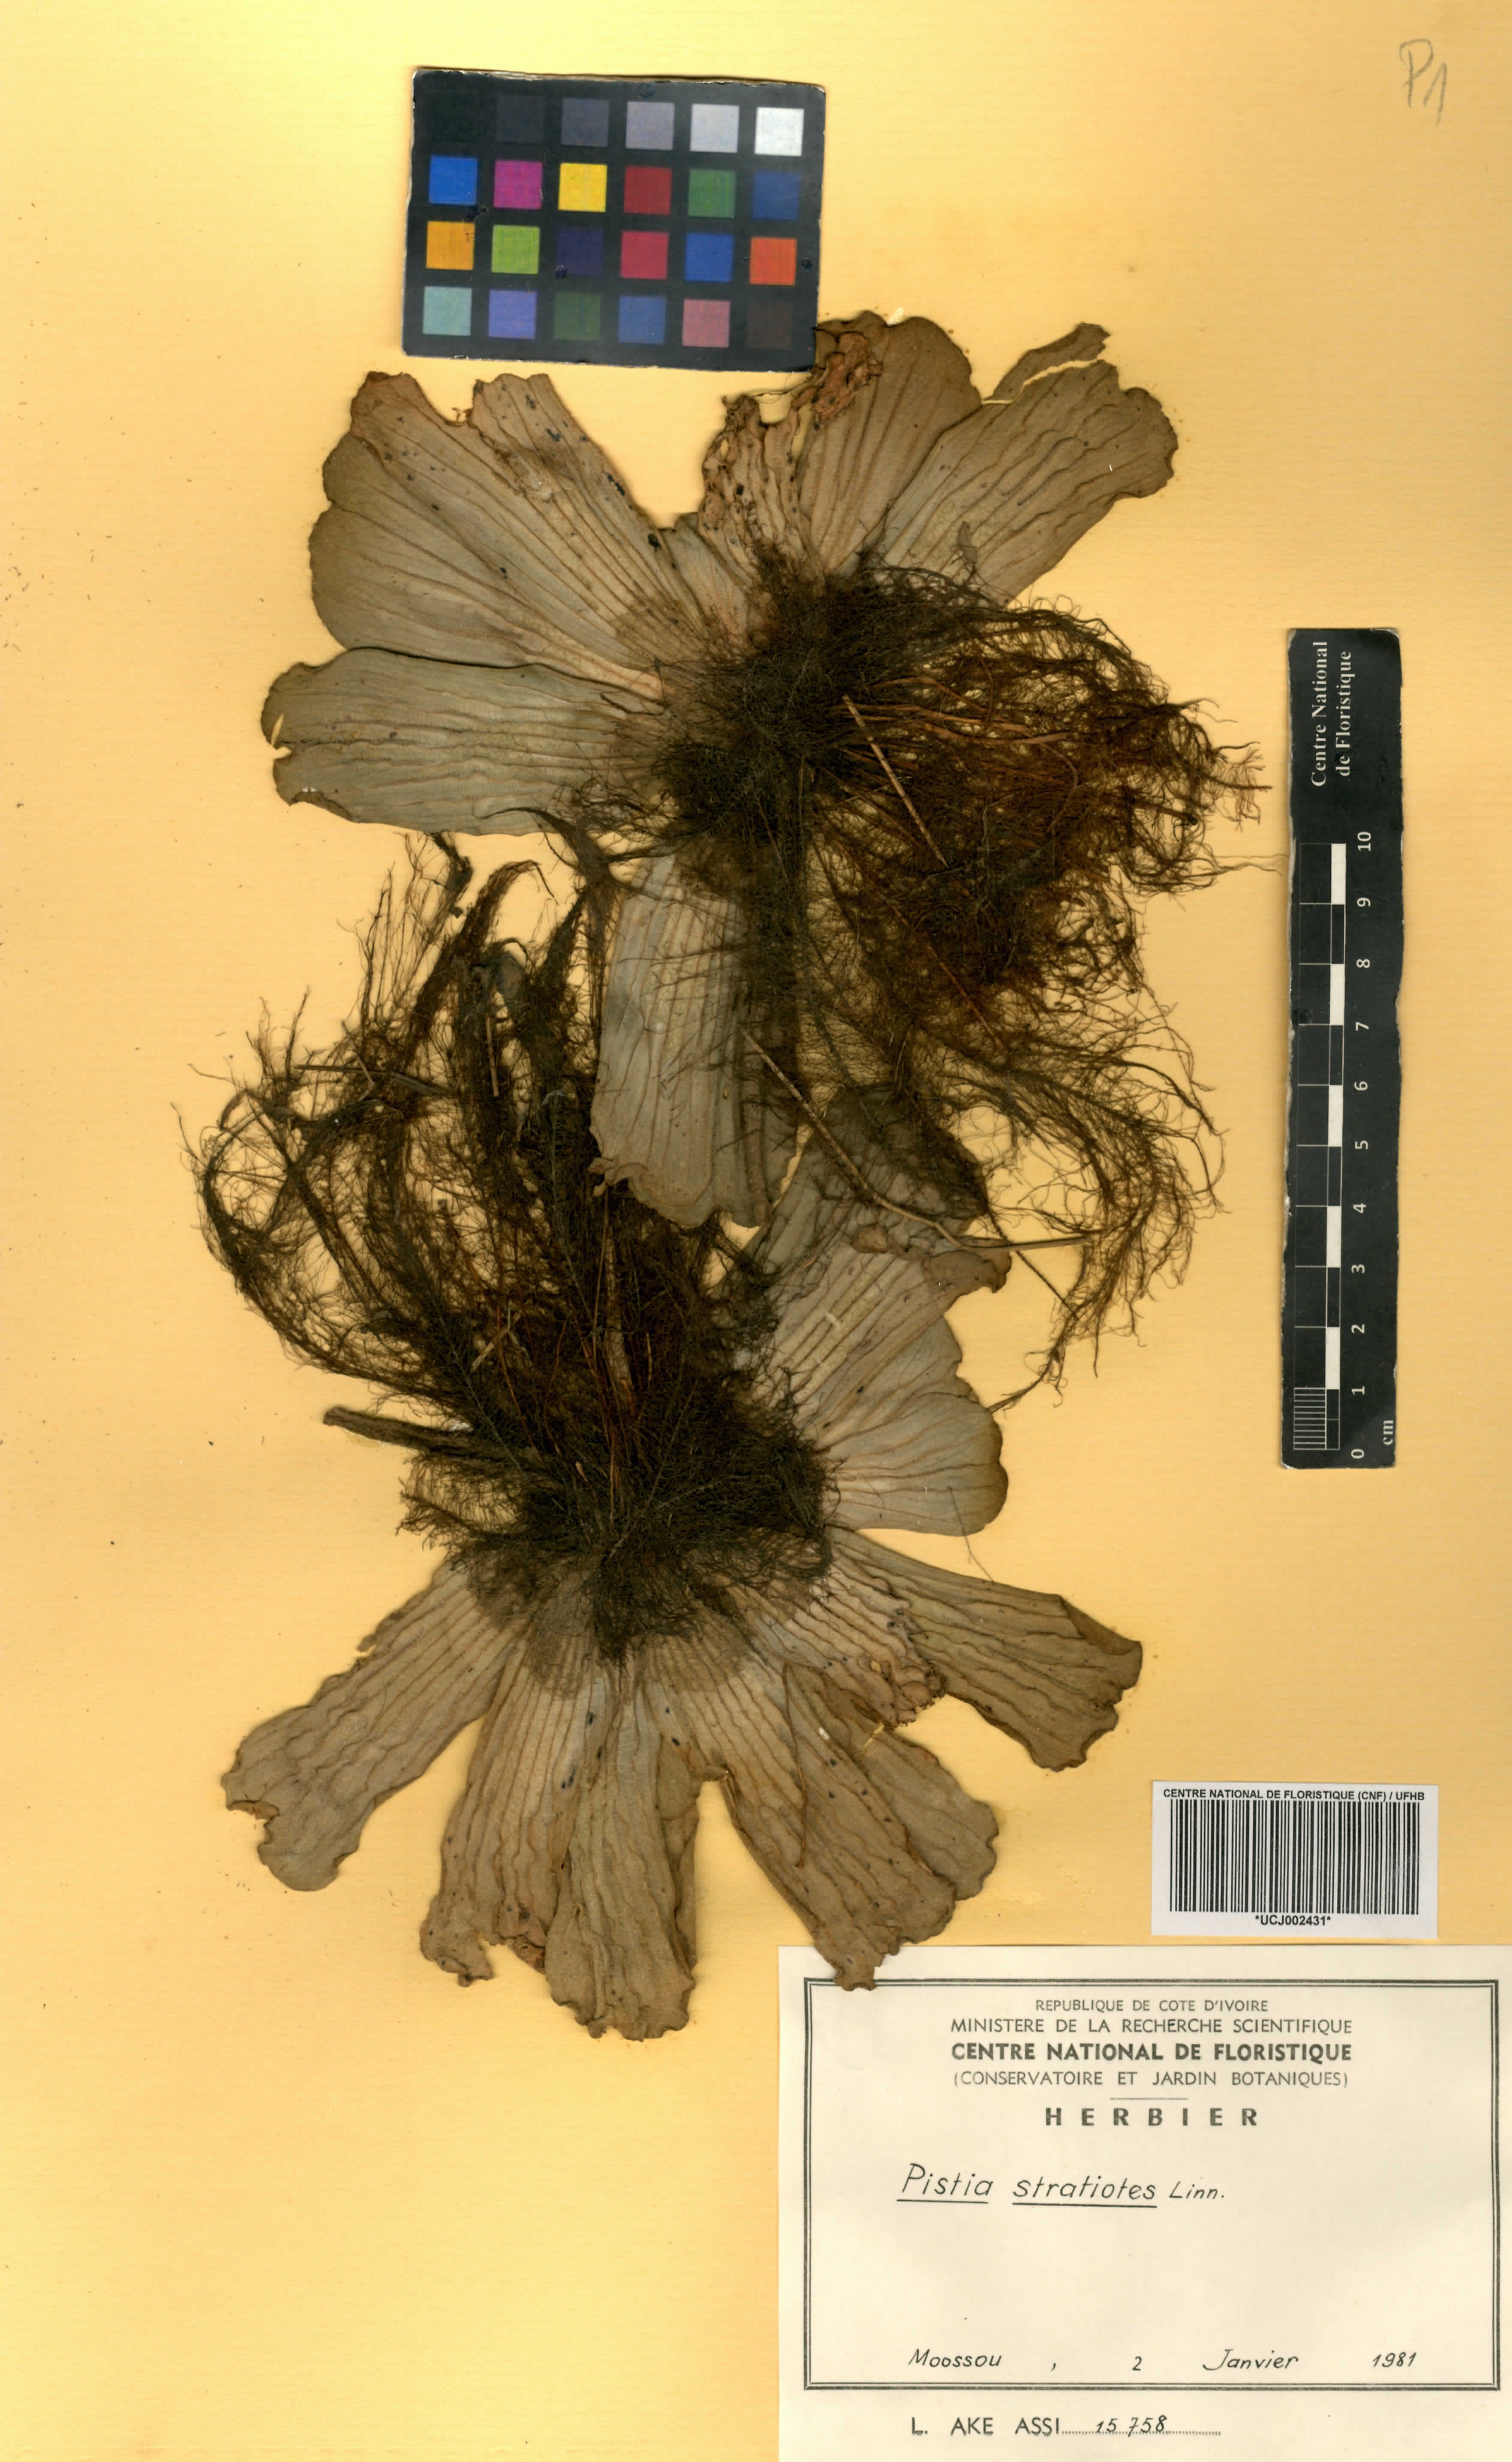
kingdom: Plantae
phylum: Tracheophyta
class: Liliopsida
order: Alismatales
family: Araceae
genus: Pistia
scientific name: Pistia stratiotes
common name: Water lettuce
